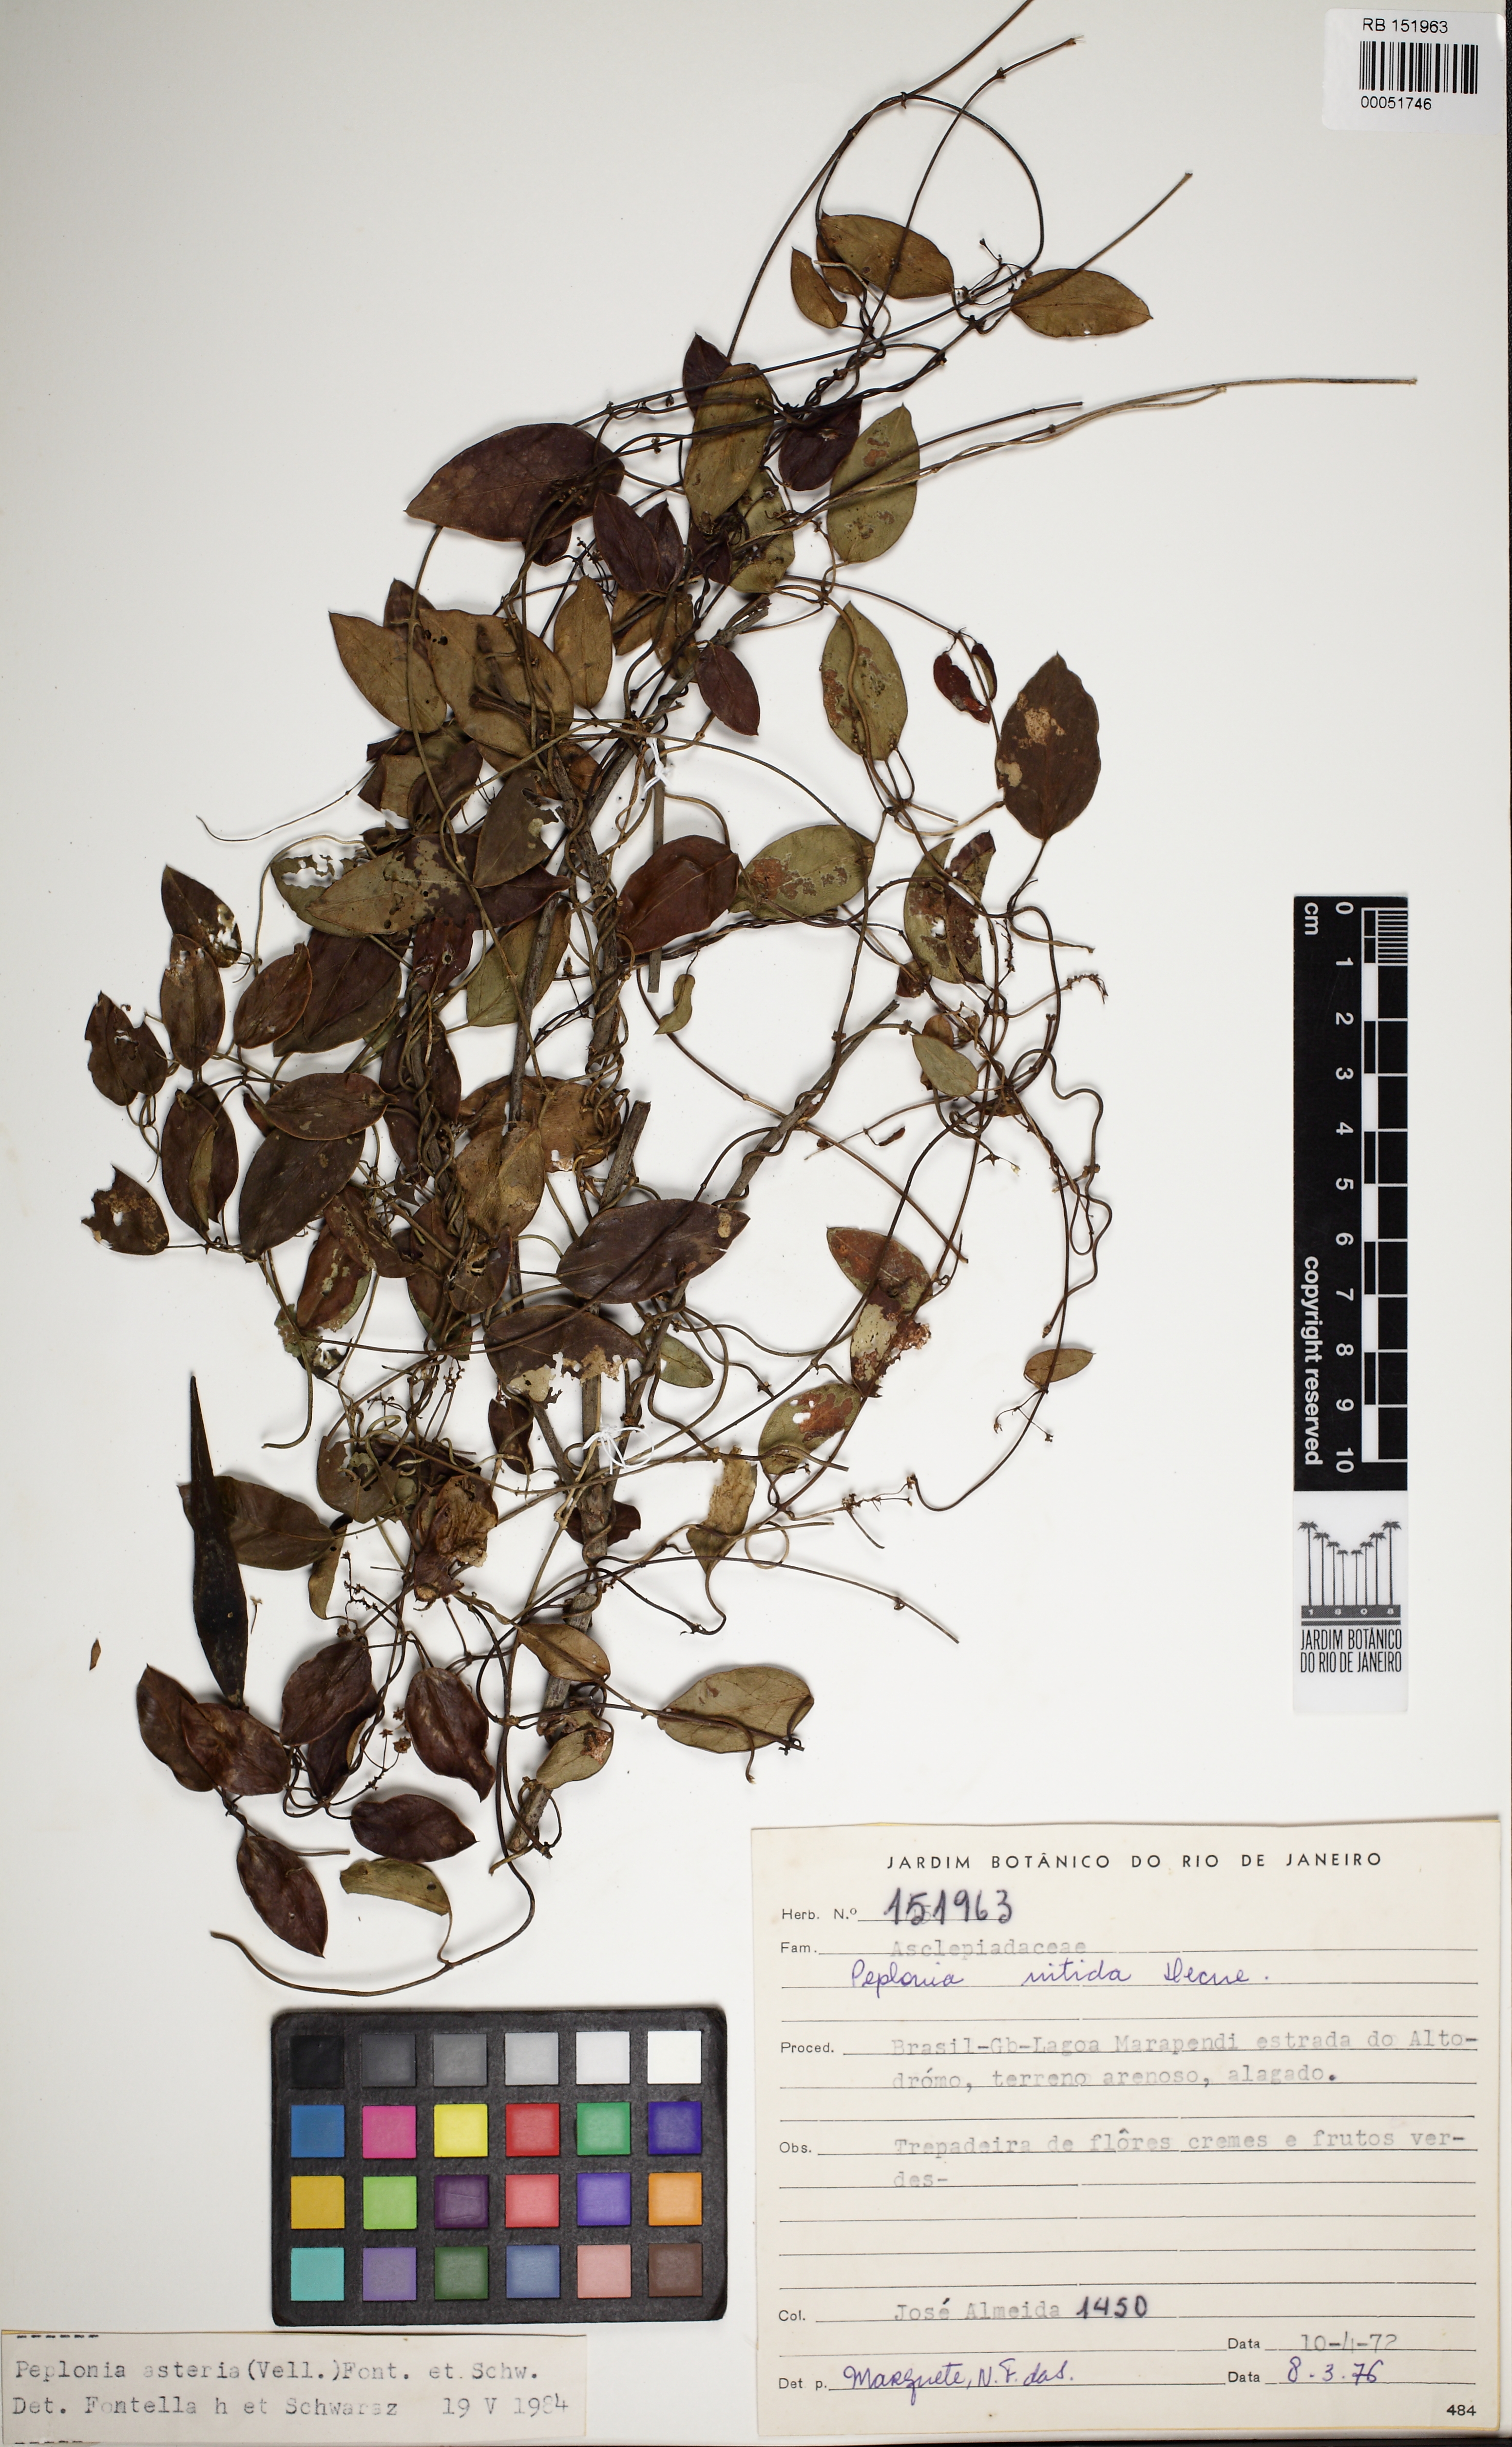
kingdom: Plantae
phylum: Tracheophyta
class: Magnoliopsida
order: Gentianales
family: Apocynaceae
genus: Peplonia
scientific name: Peplonia asteria
